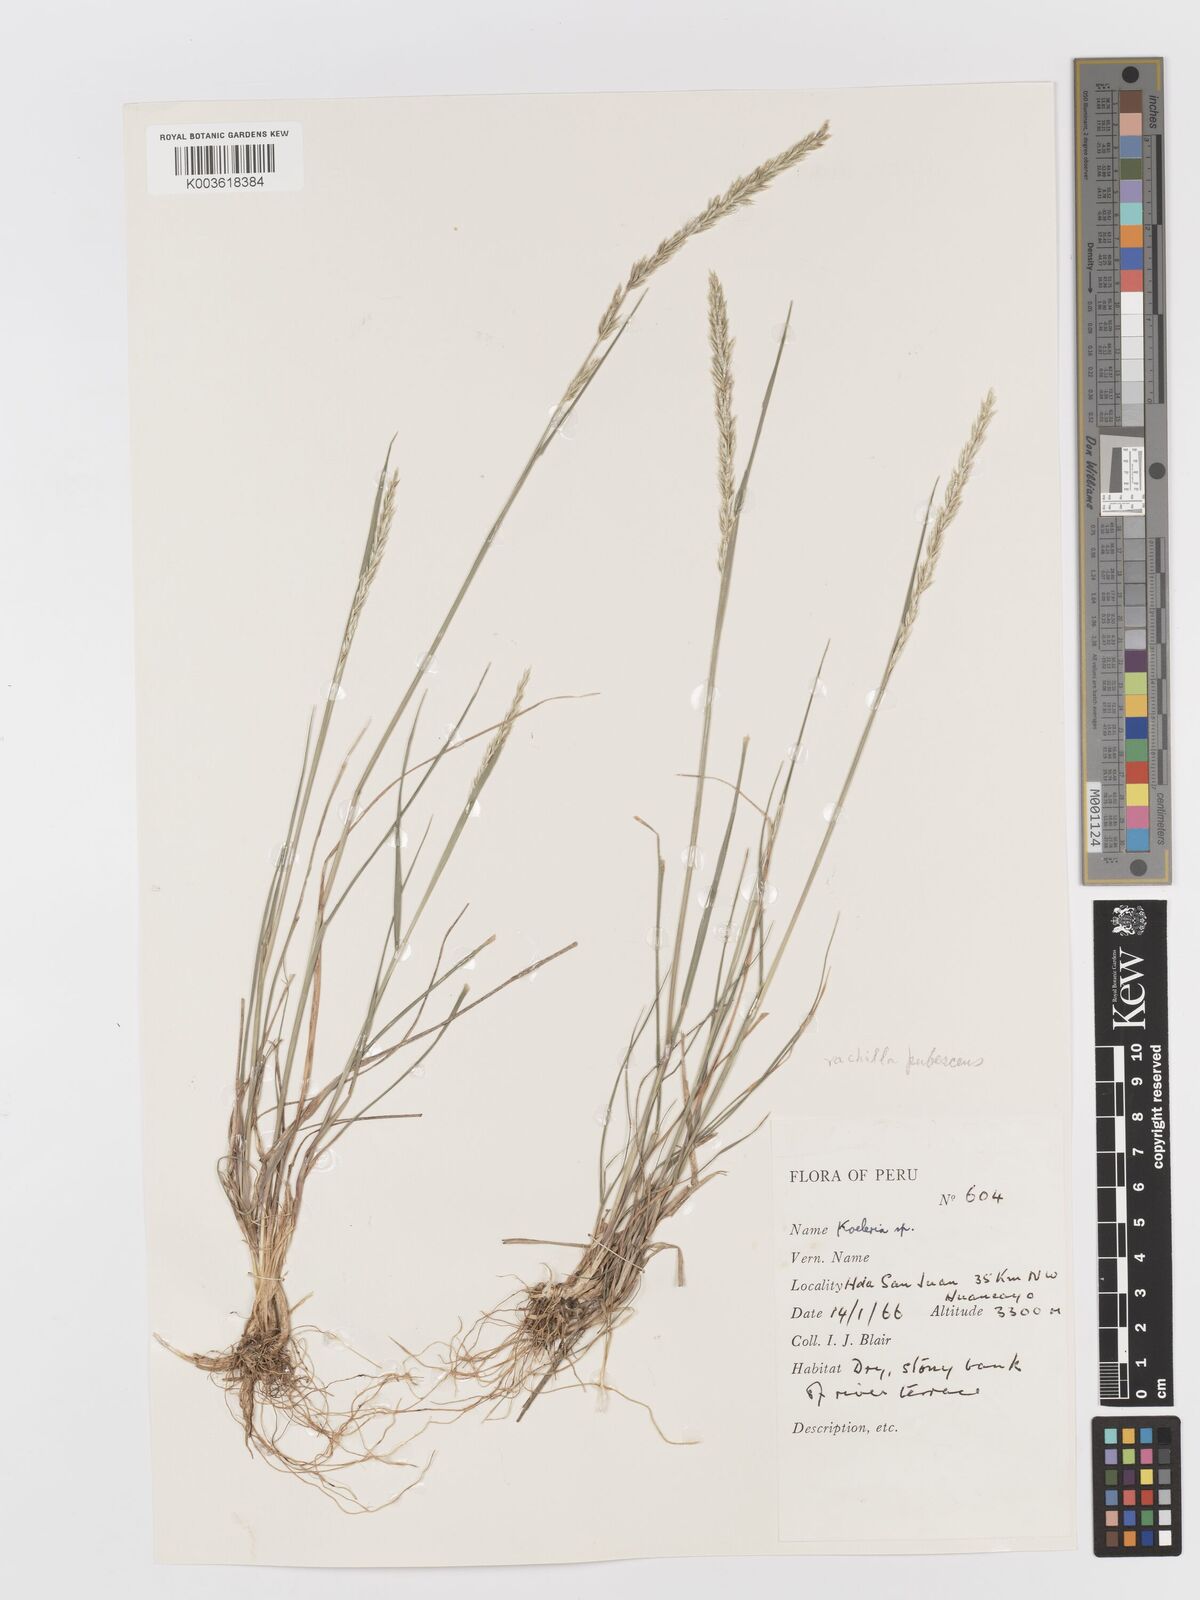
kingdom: Plantae
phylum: Tracheophyta
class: Liliopsida
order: Poales
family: Poaceae
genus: Koeleria
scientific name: Koeleria permollis
